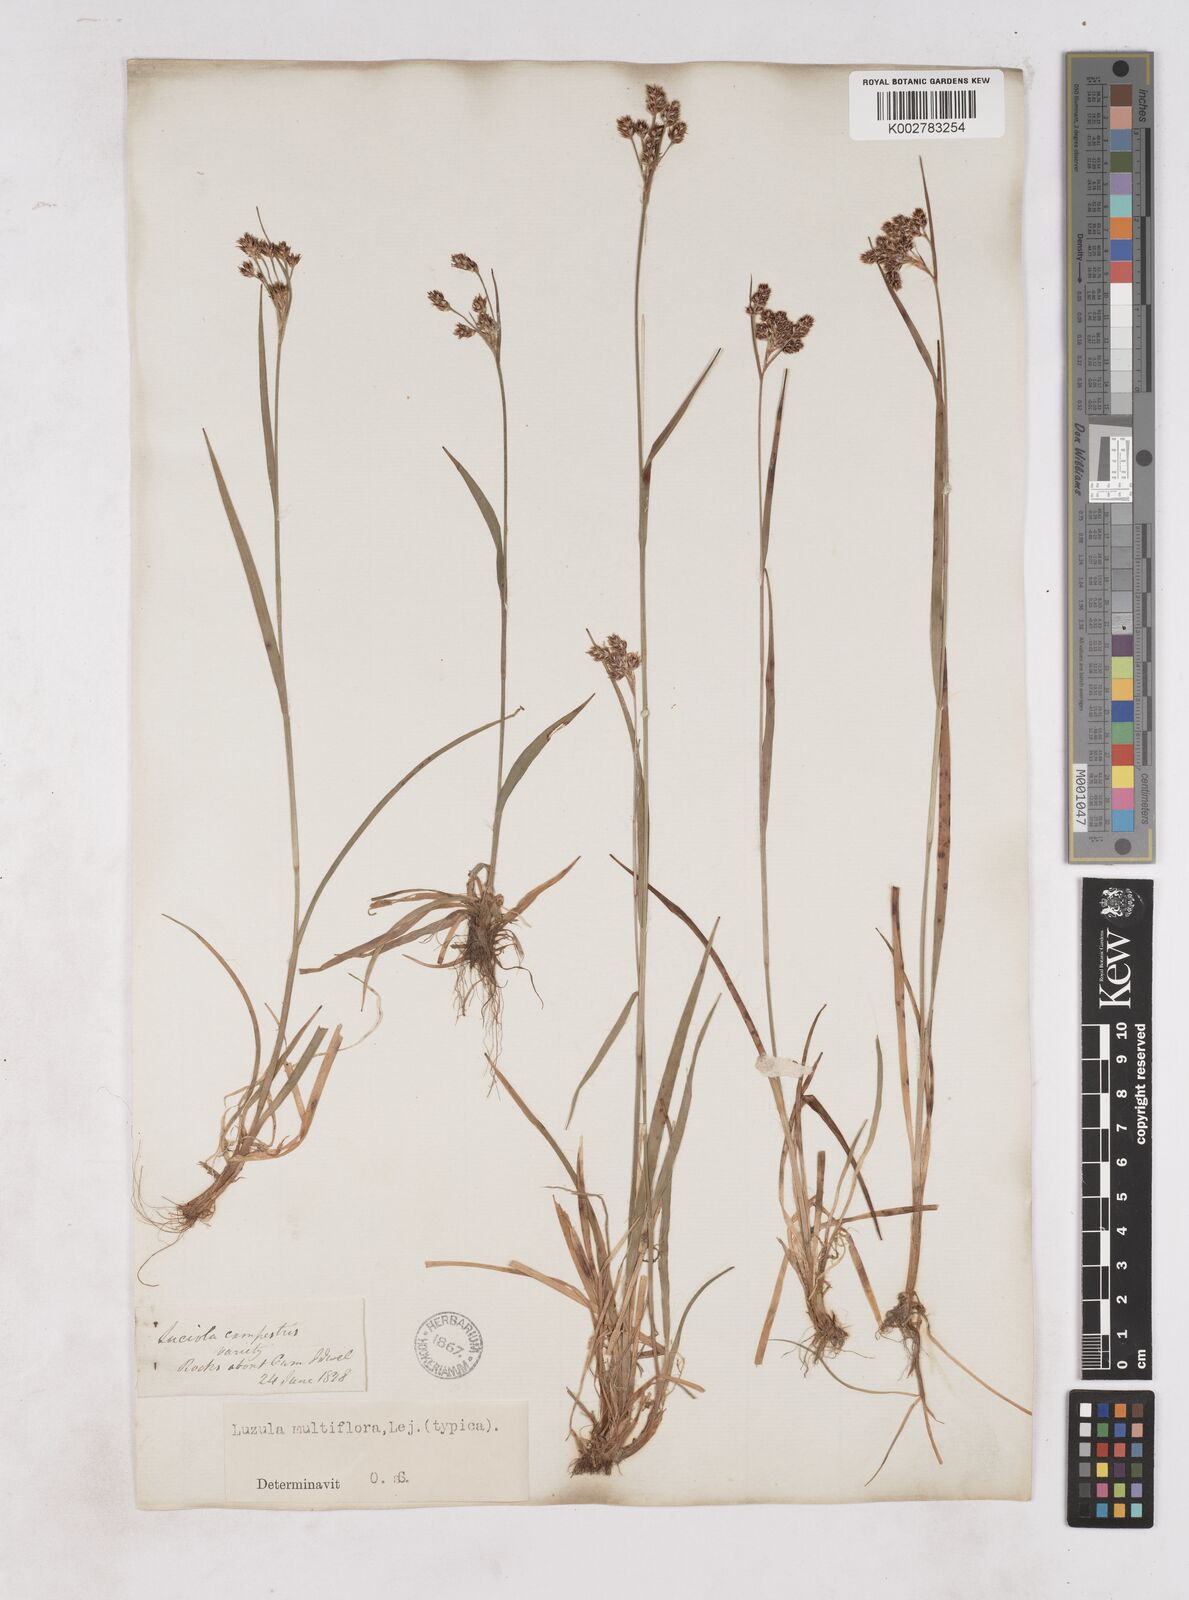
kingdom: Plantae
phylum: Tracheophyta
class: Liliopsida
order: Poales
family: Juncaceae
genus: Luzula
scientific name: Luzula multiflora
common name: Heath wood-rush
